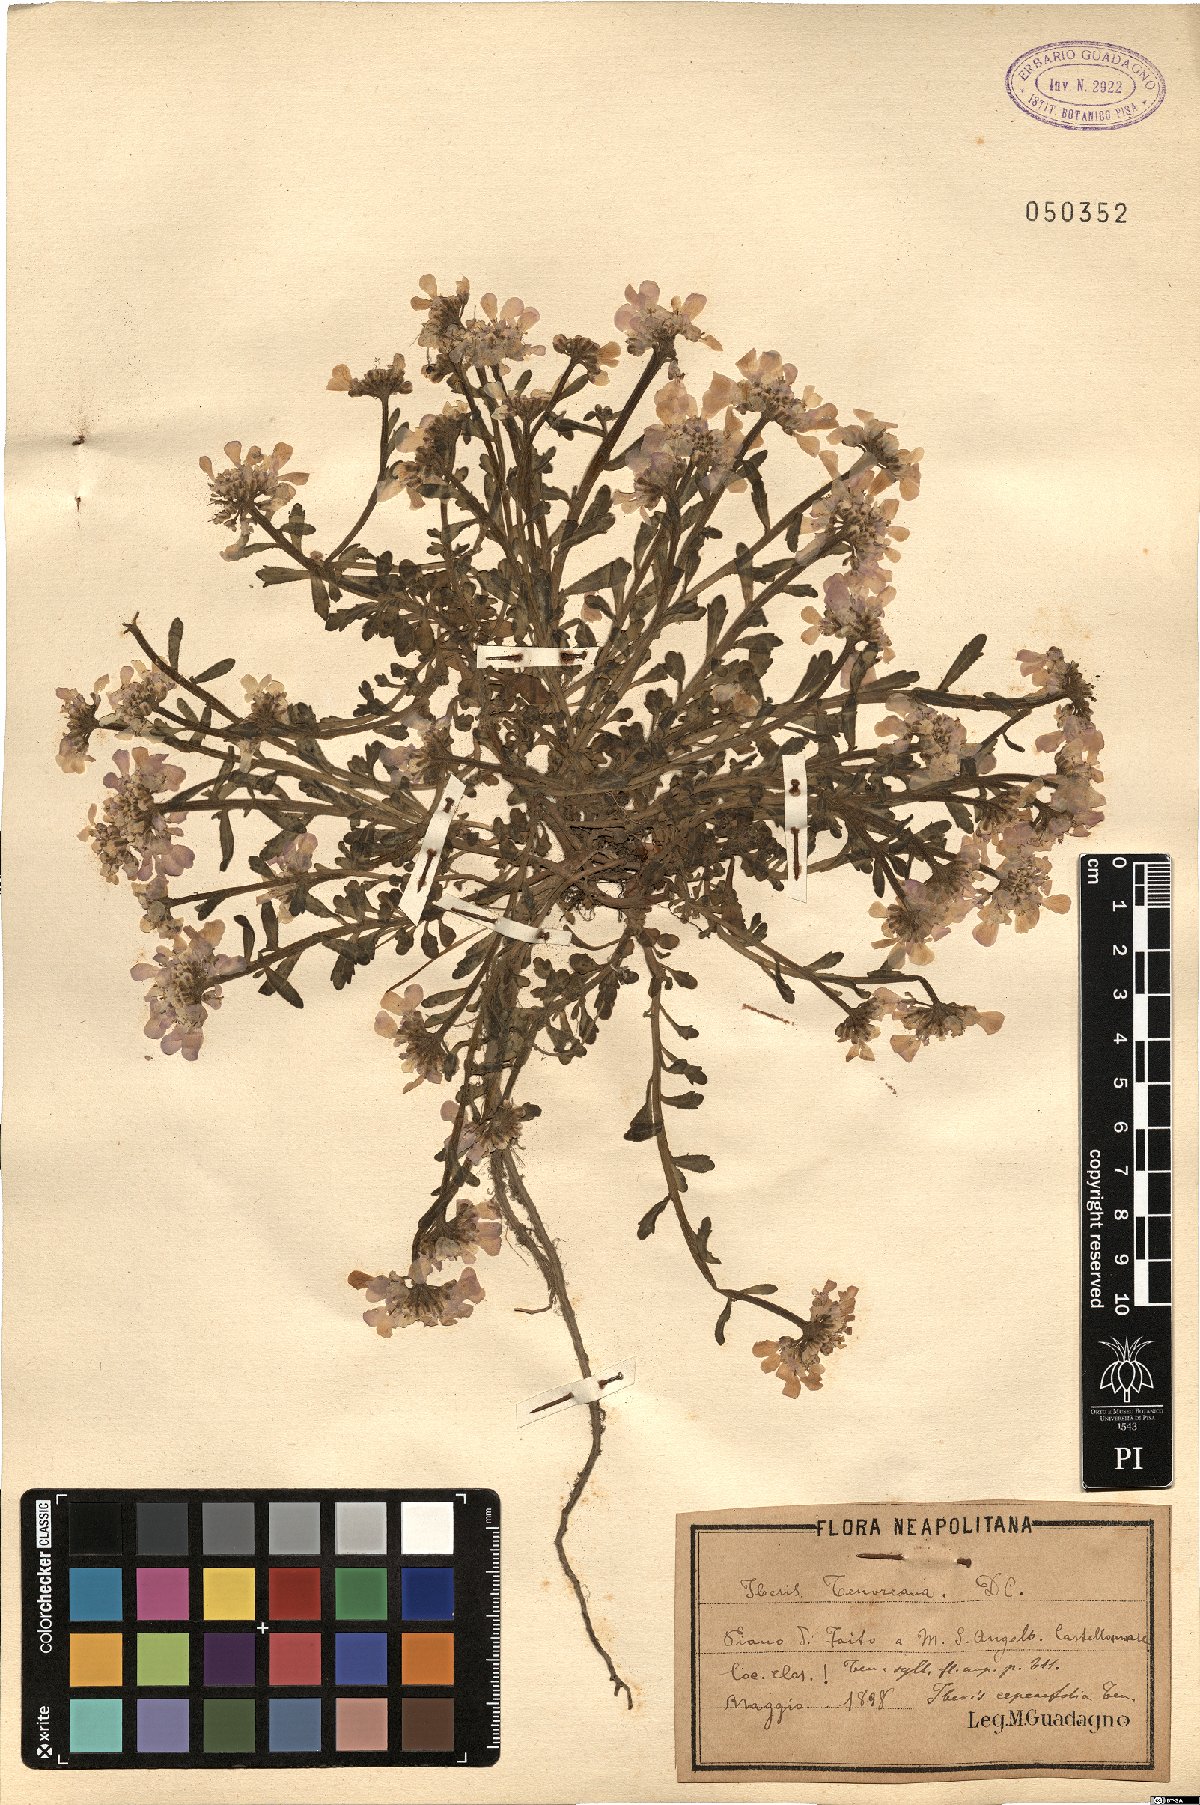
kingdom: Plantae
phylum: Tracheophyta
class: Magnoliopsida
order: Brassicales
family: Brassicaceae
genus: Iberis
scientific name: Iberis carnosa
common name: Pruit's candytuft
